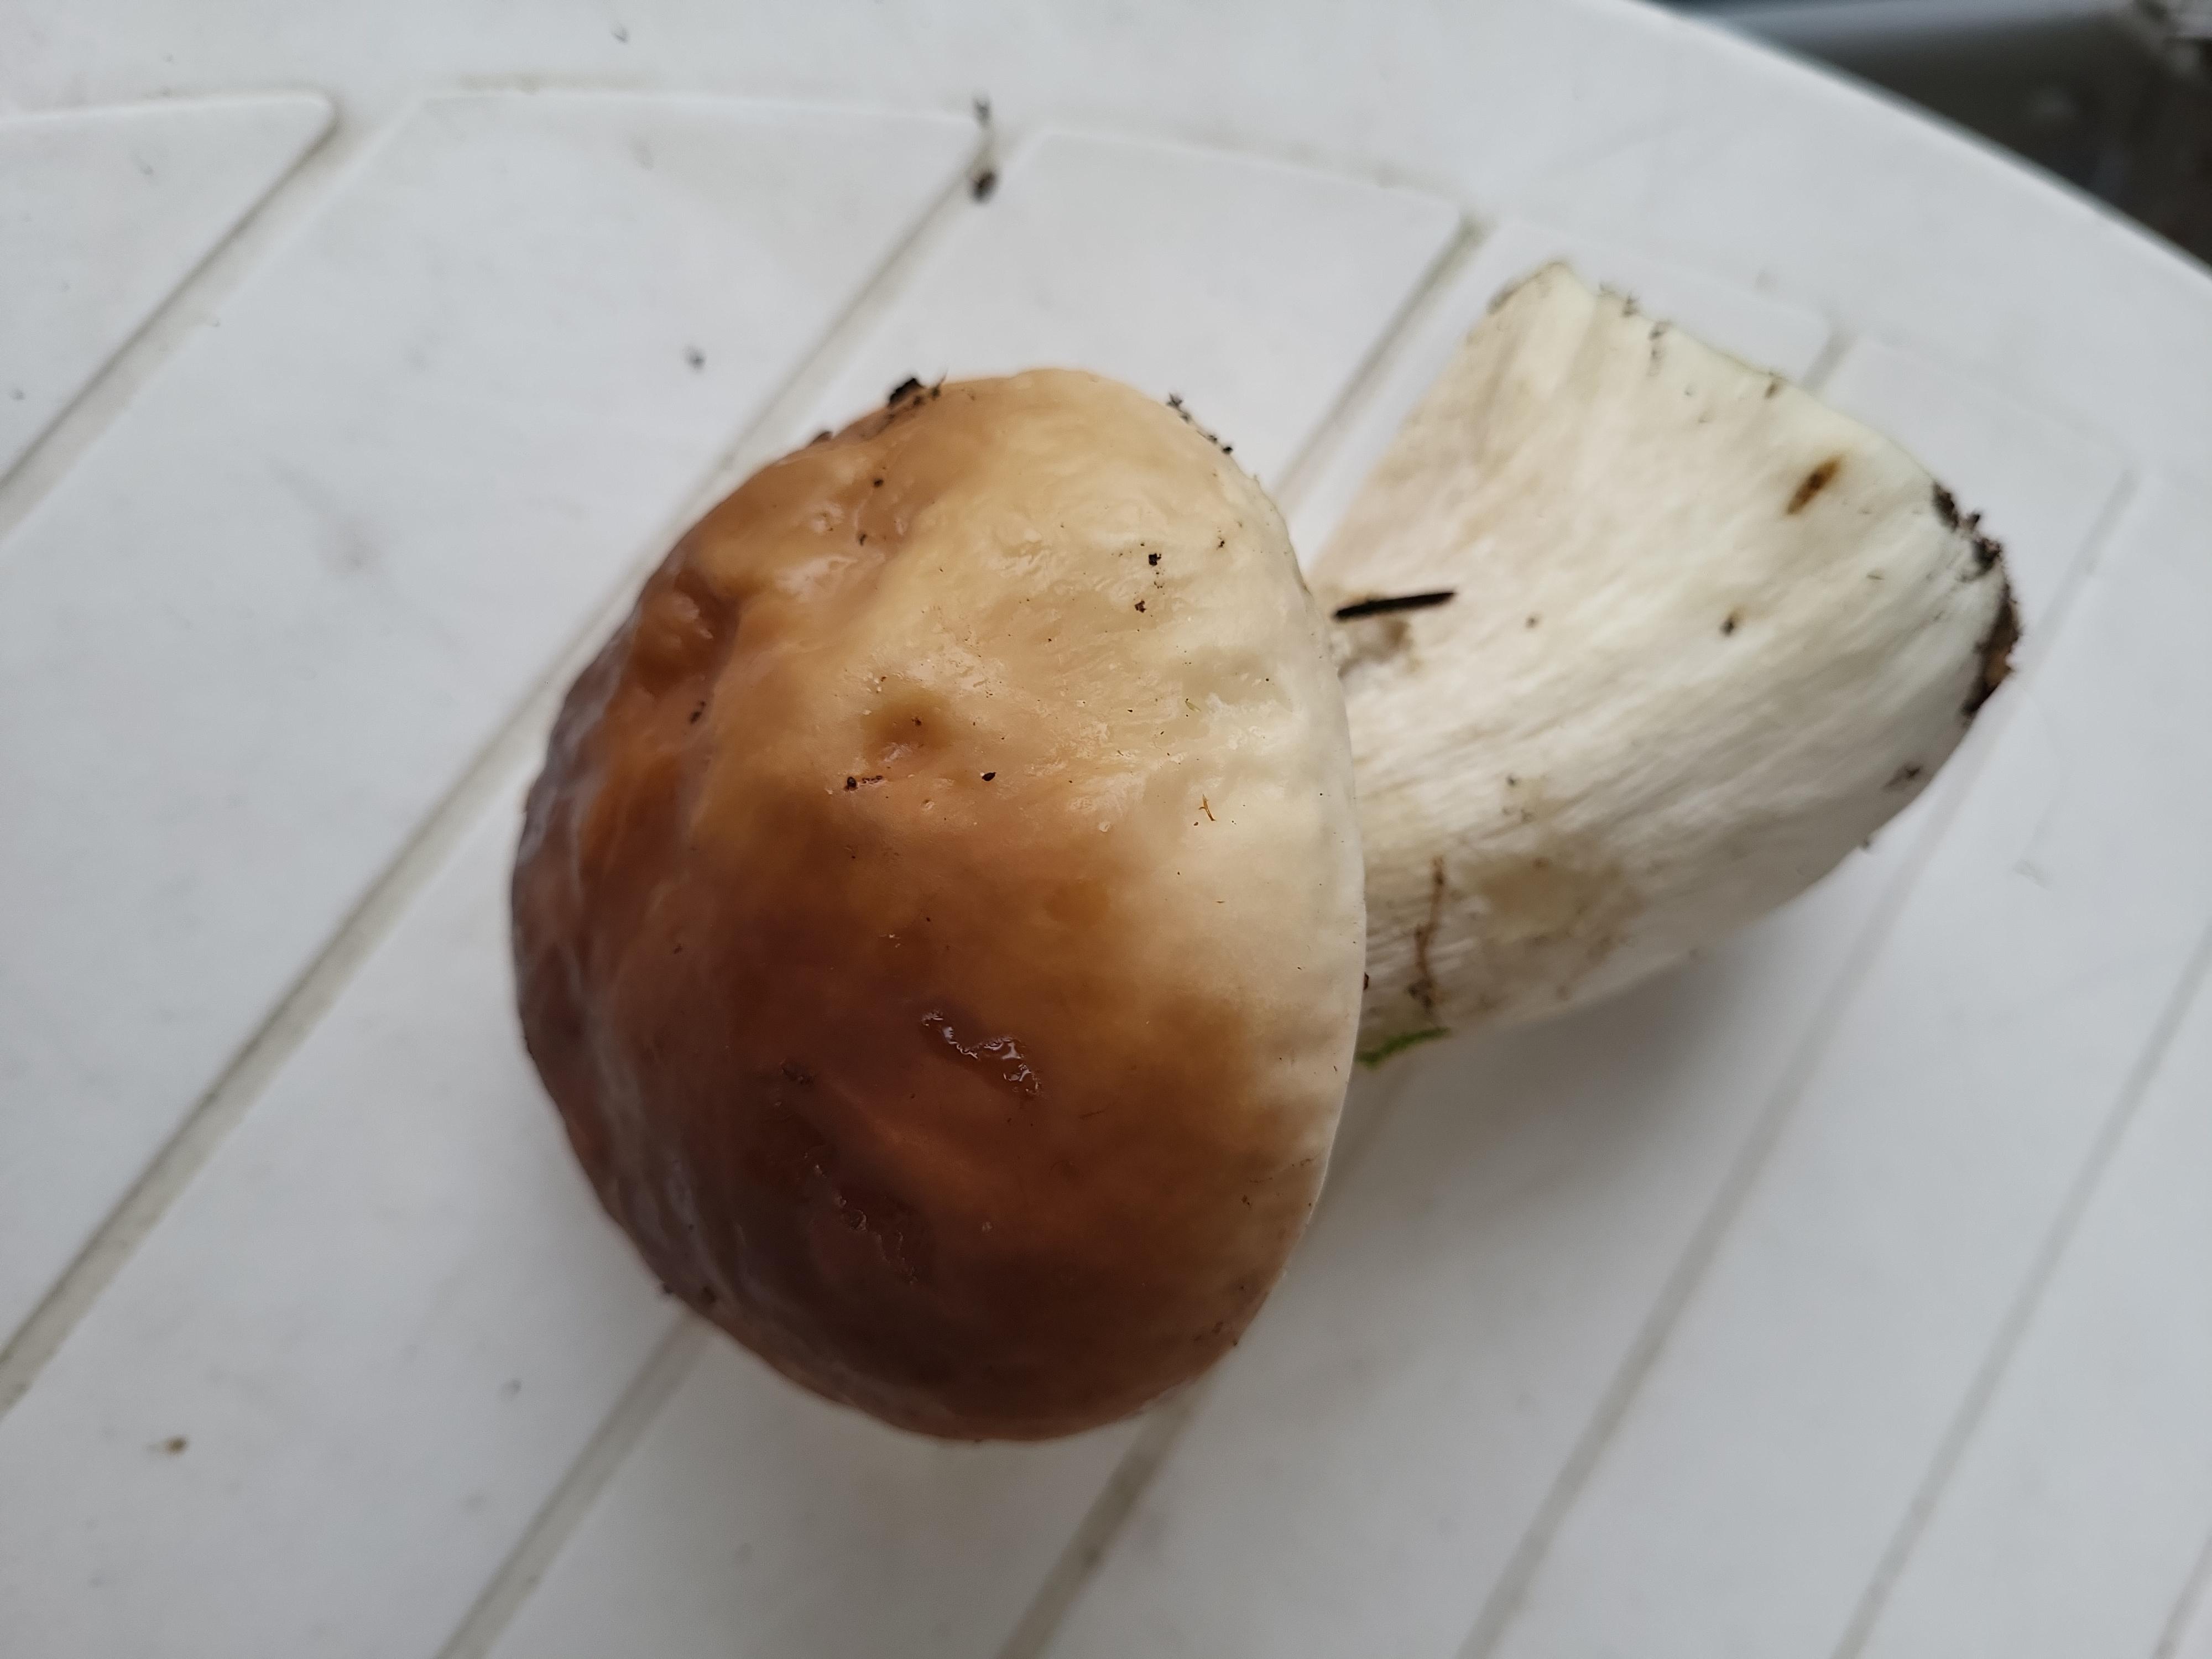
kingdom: Fungi
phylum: Basidiomycota
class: Agaricomycetes
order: Boletales
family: Boletaceae
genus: Boletus
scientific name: Boletus edulis
